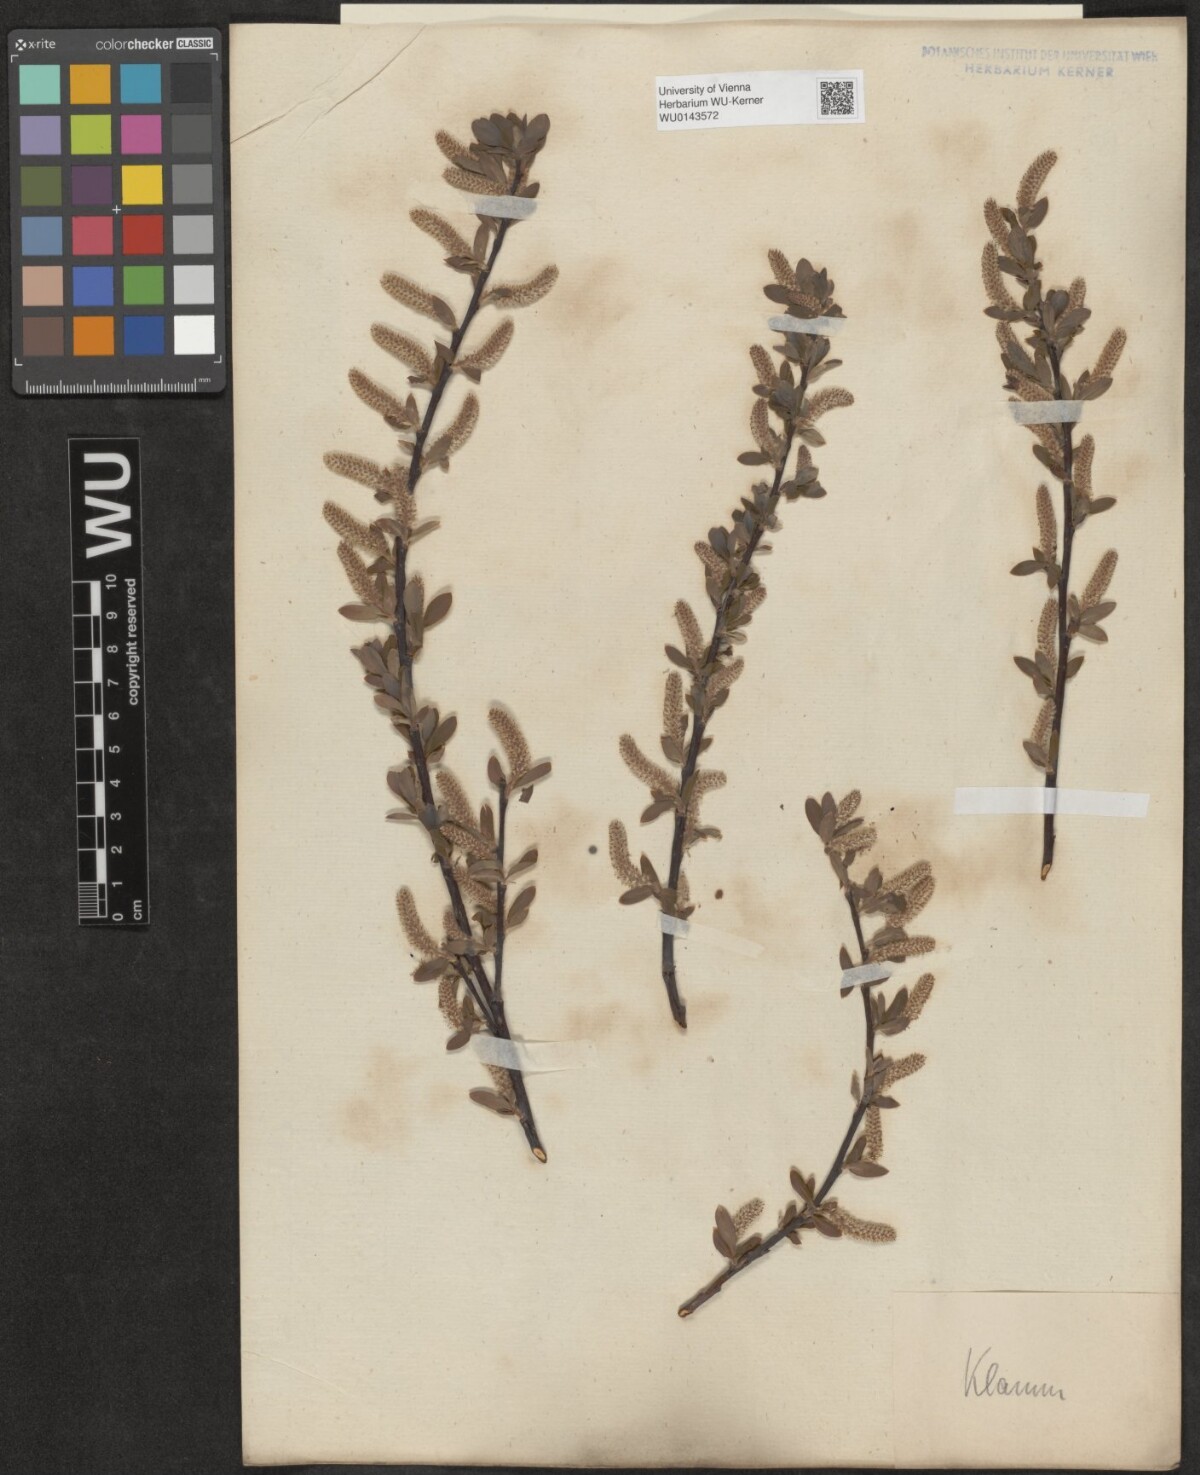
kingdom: Plantae
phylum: Tracheophyta
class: Magnoliopsida
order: Malpighiales
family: Salicaceae
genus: Salix
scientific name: Salix waldsteiniana
